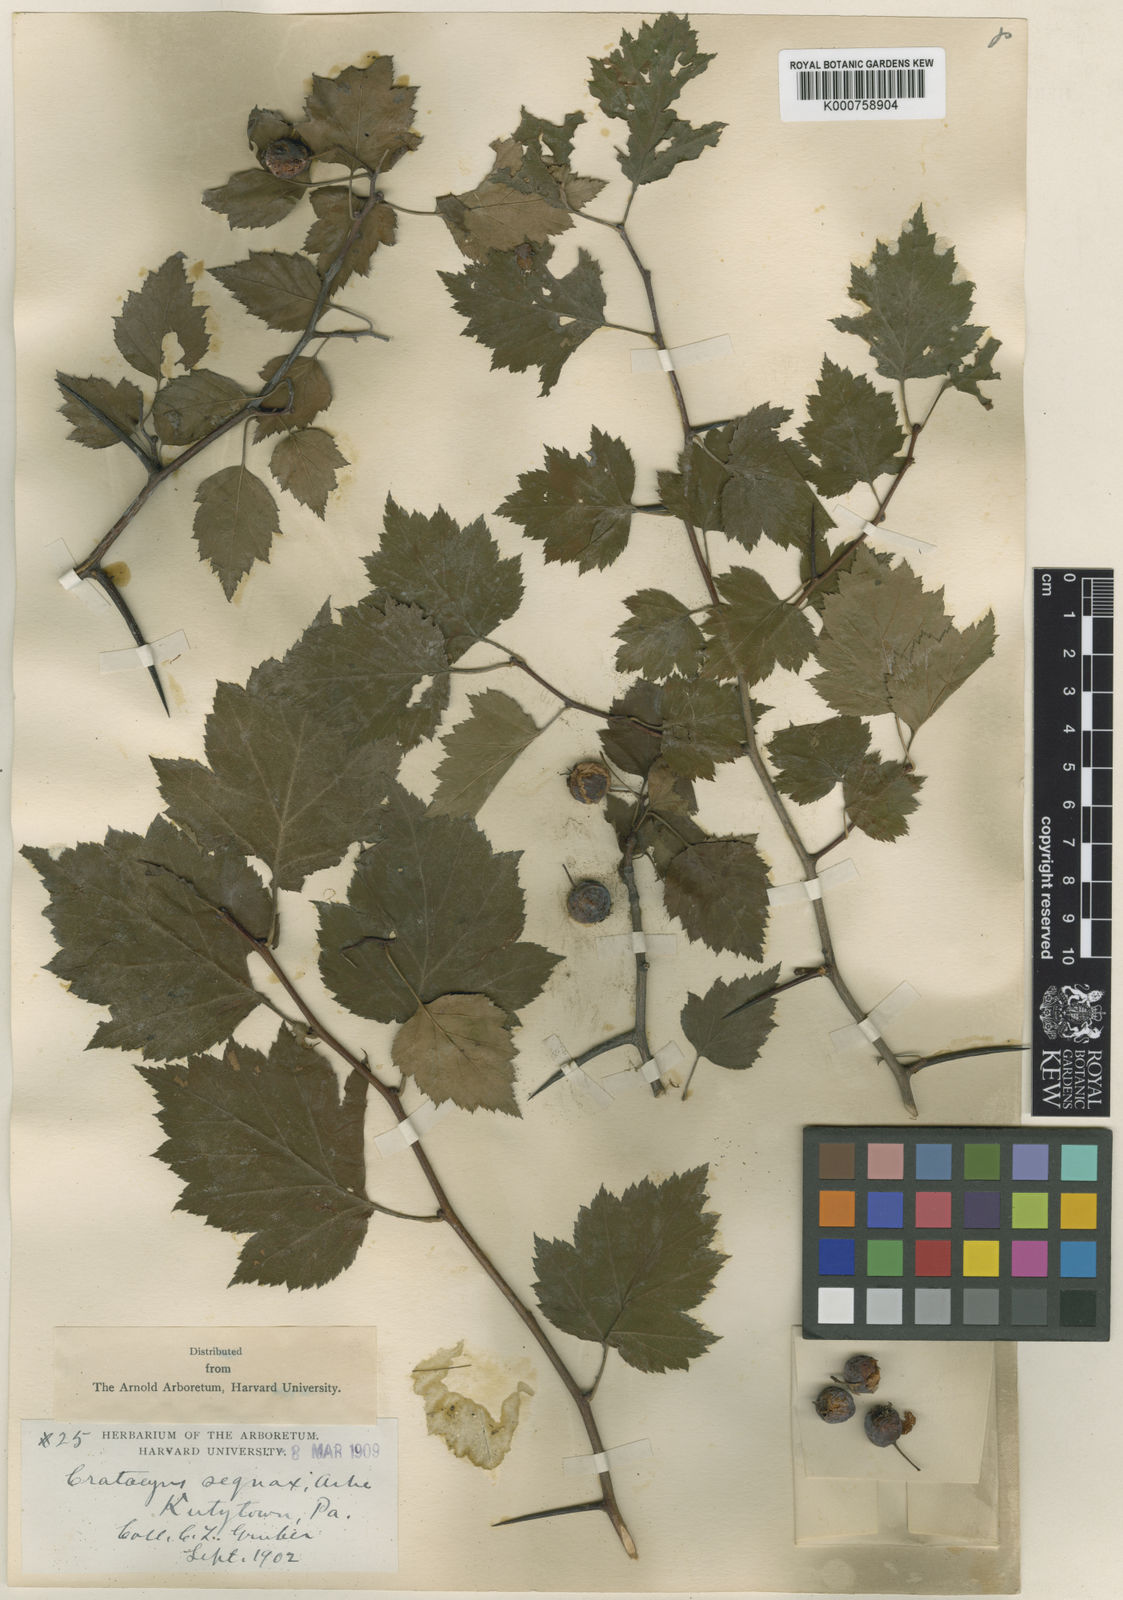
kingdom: Plantae
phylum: Tracheophyta
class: Magnoliopsida
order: Rosales
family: Rosaceae
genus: Crataegus
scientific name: Crataegus sequax
